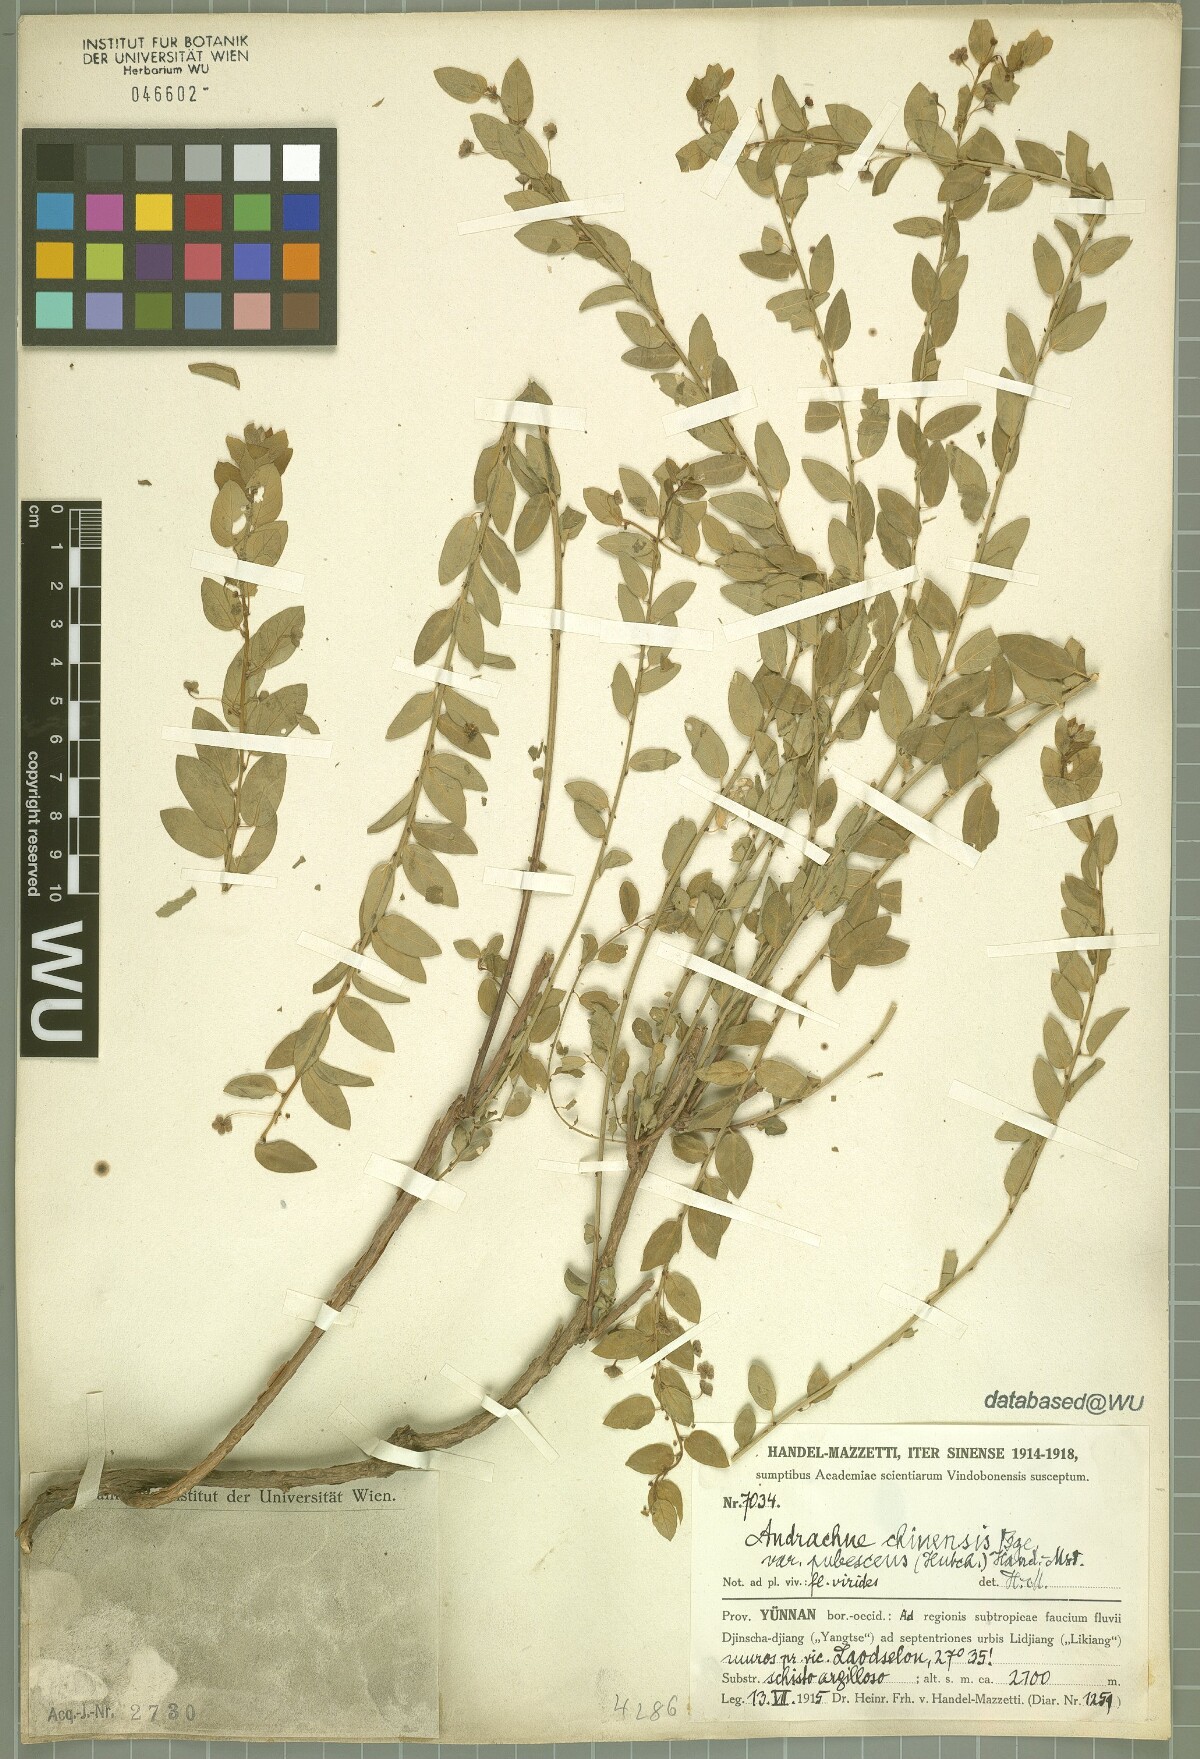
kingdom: Plantae
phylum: Tracheophyta
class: Magnoliopsida
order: Malpighiales
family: Phyllanthaceae
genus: Leptopus
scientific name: Leptopus chinensis
